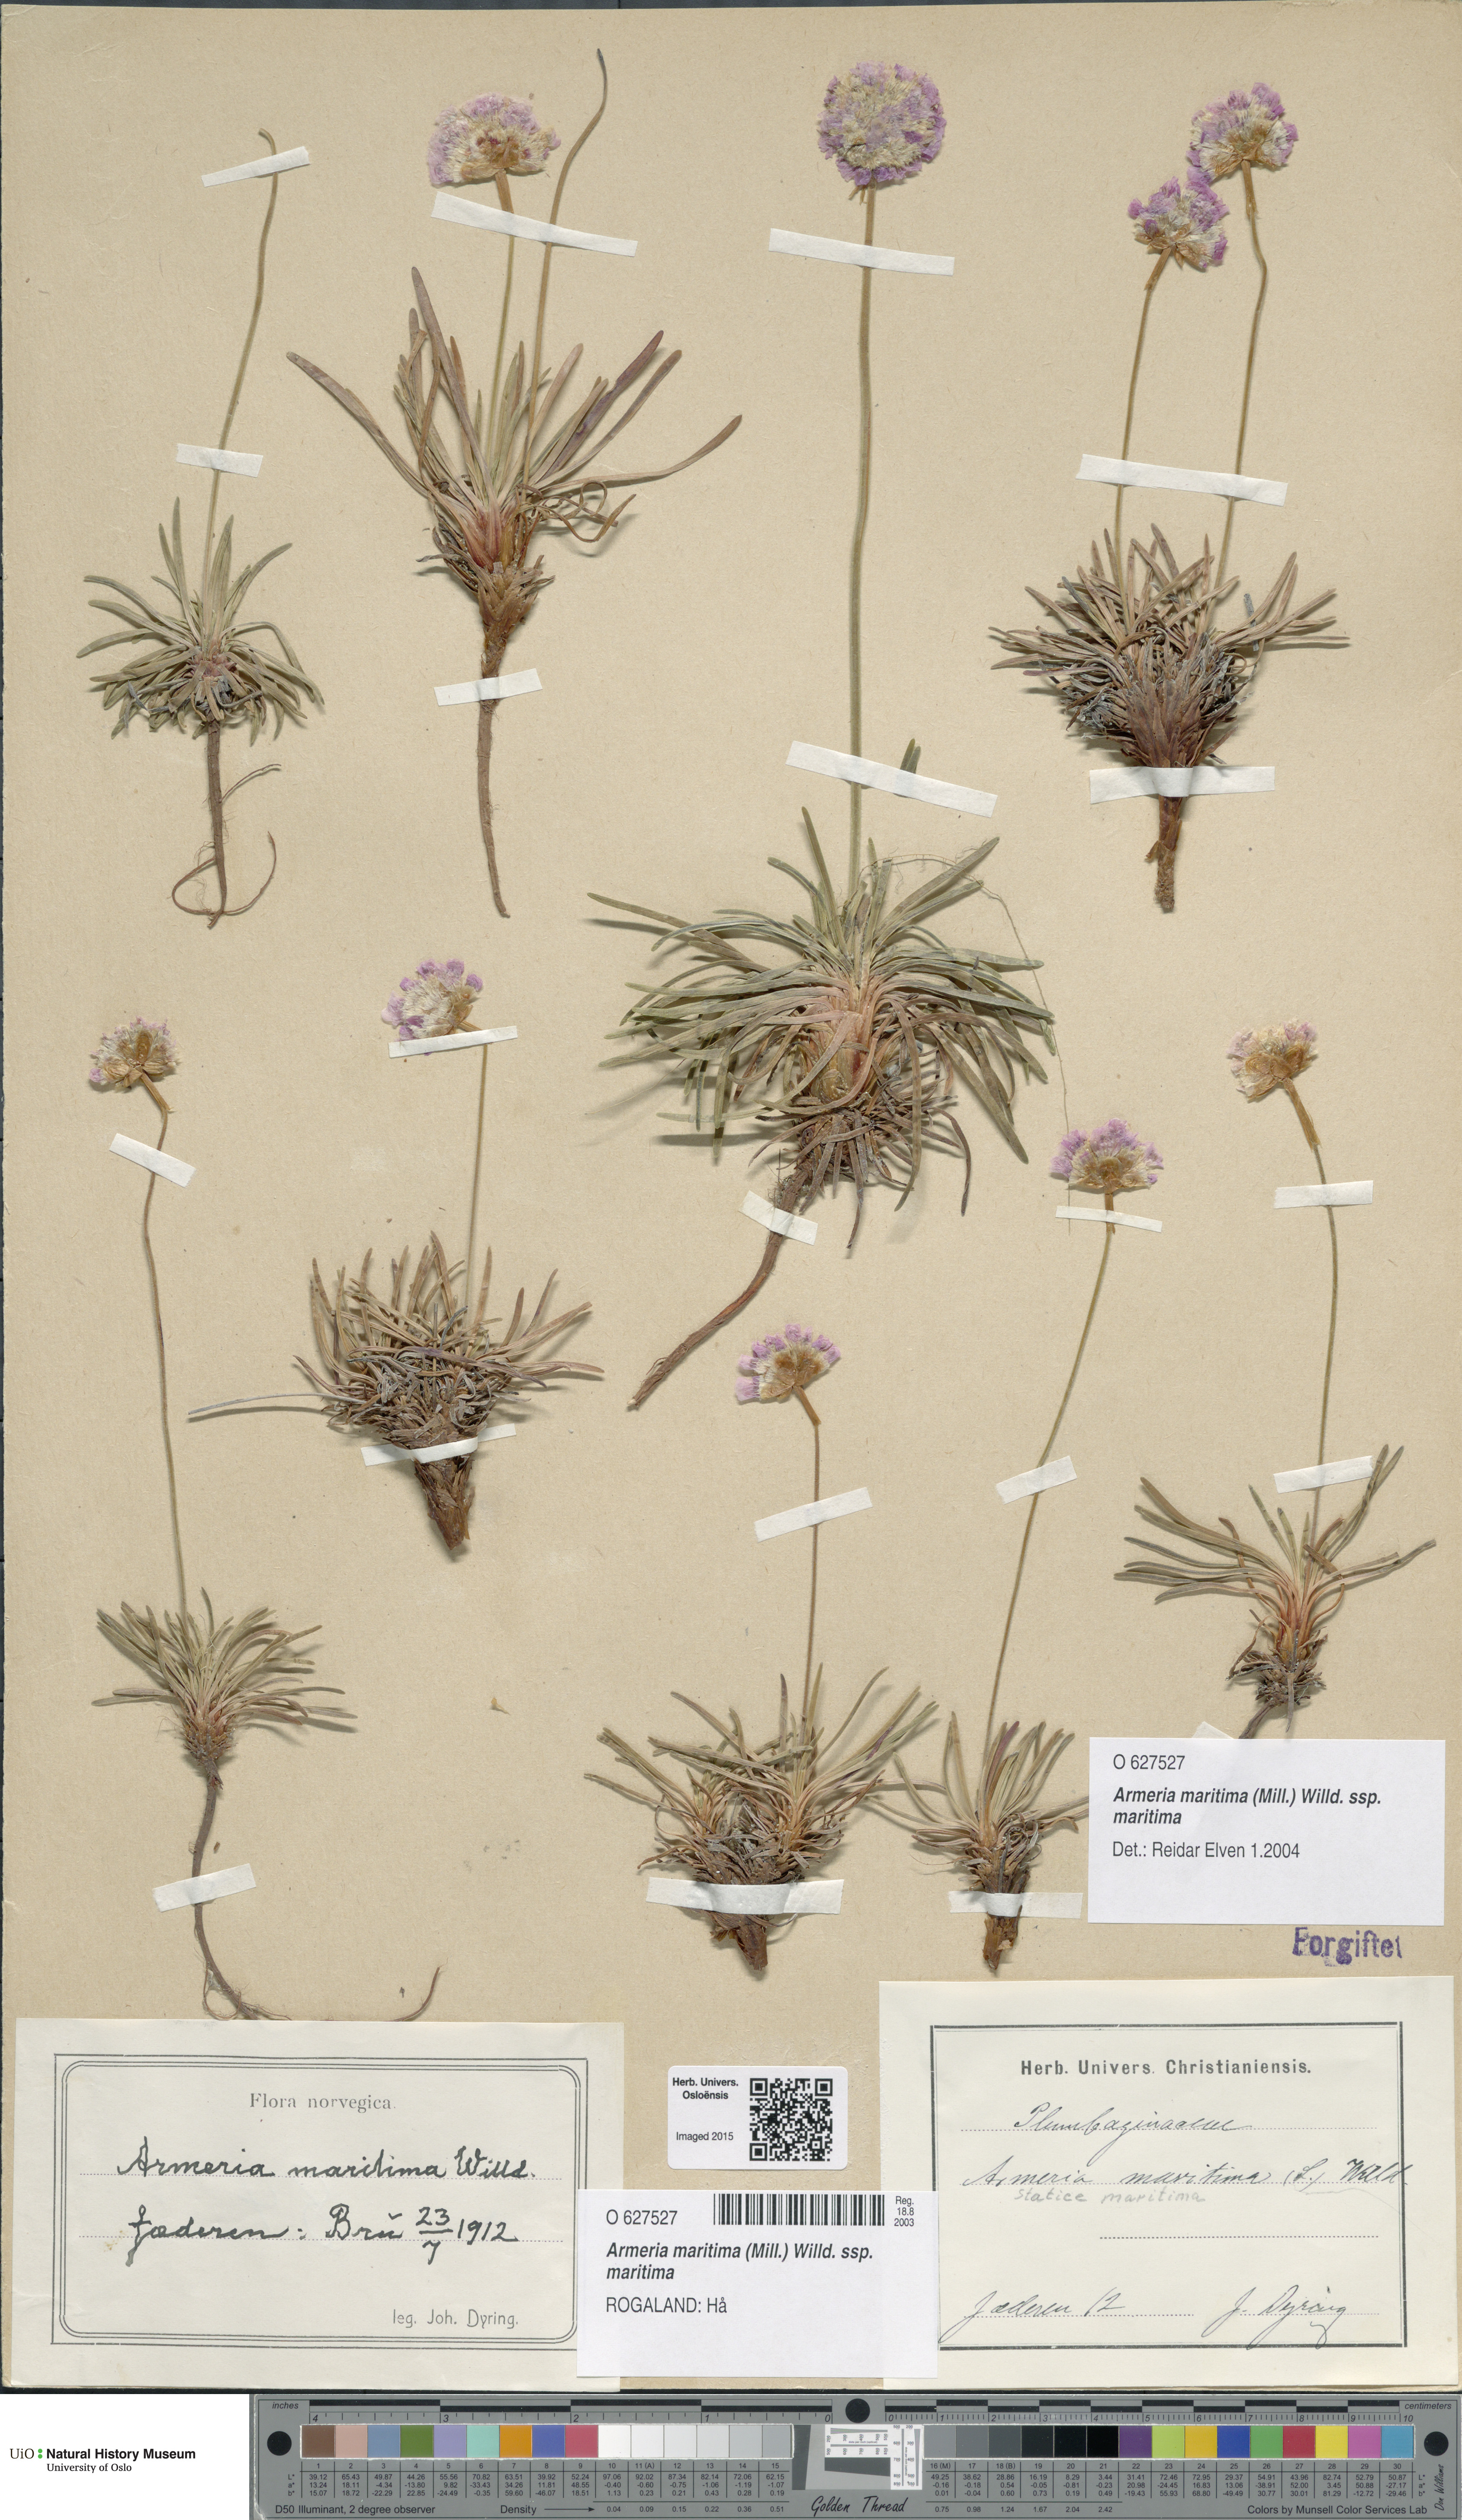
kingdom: Plantae
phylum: Tracheophyta
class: Magnoliopsida
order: Caryophyllales
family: Plumbaginaceae
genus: Armeria
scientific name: Armeria maritima
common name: Thrift
